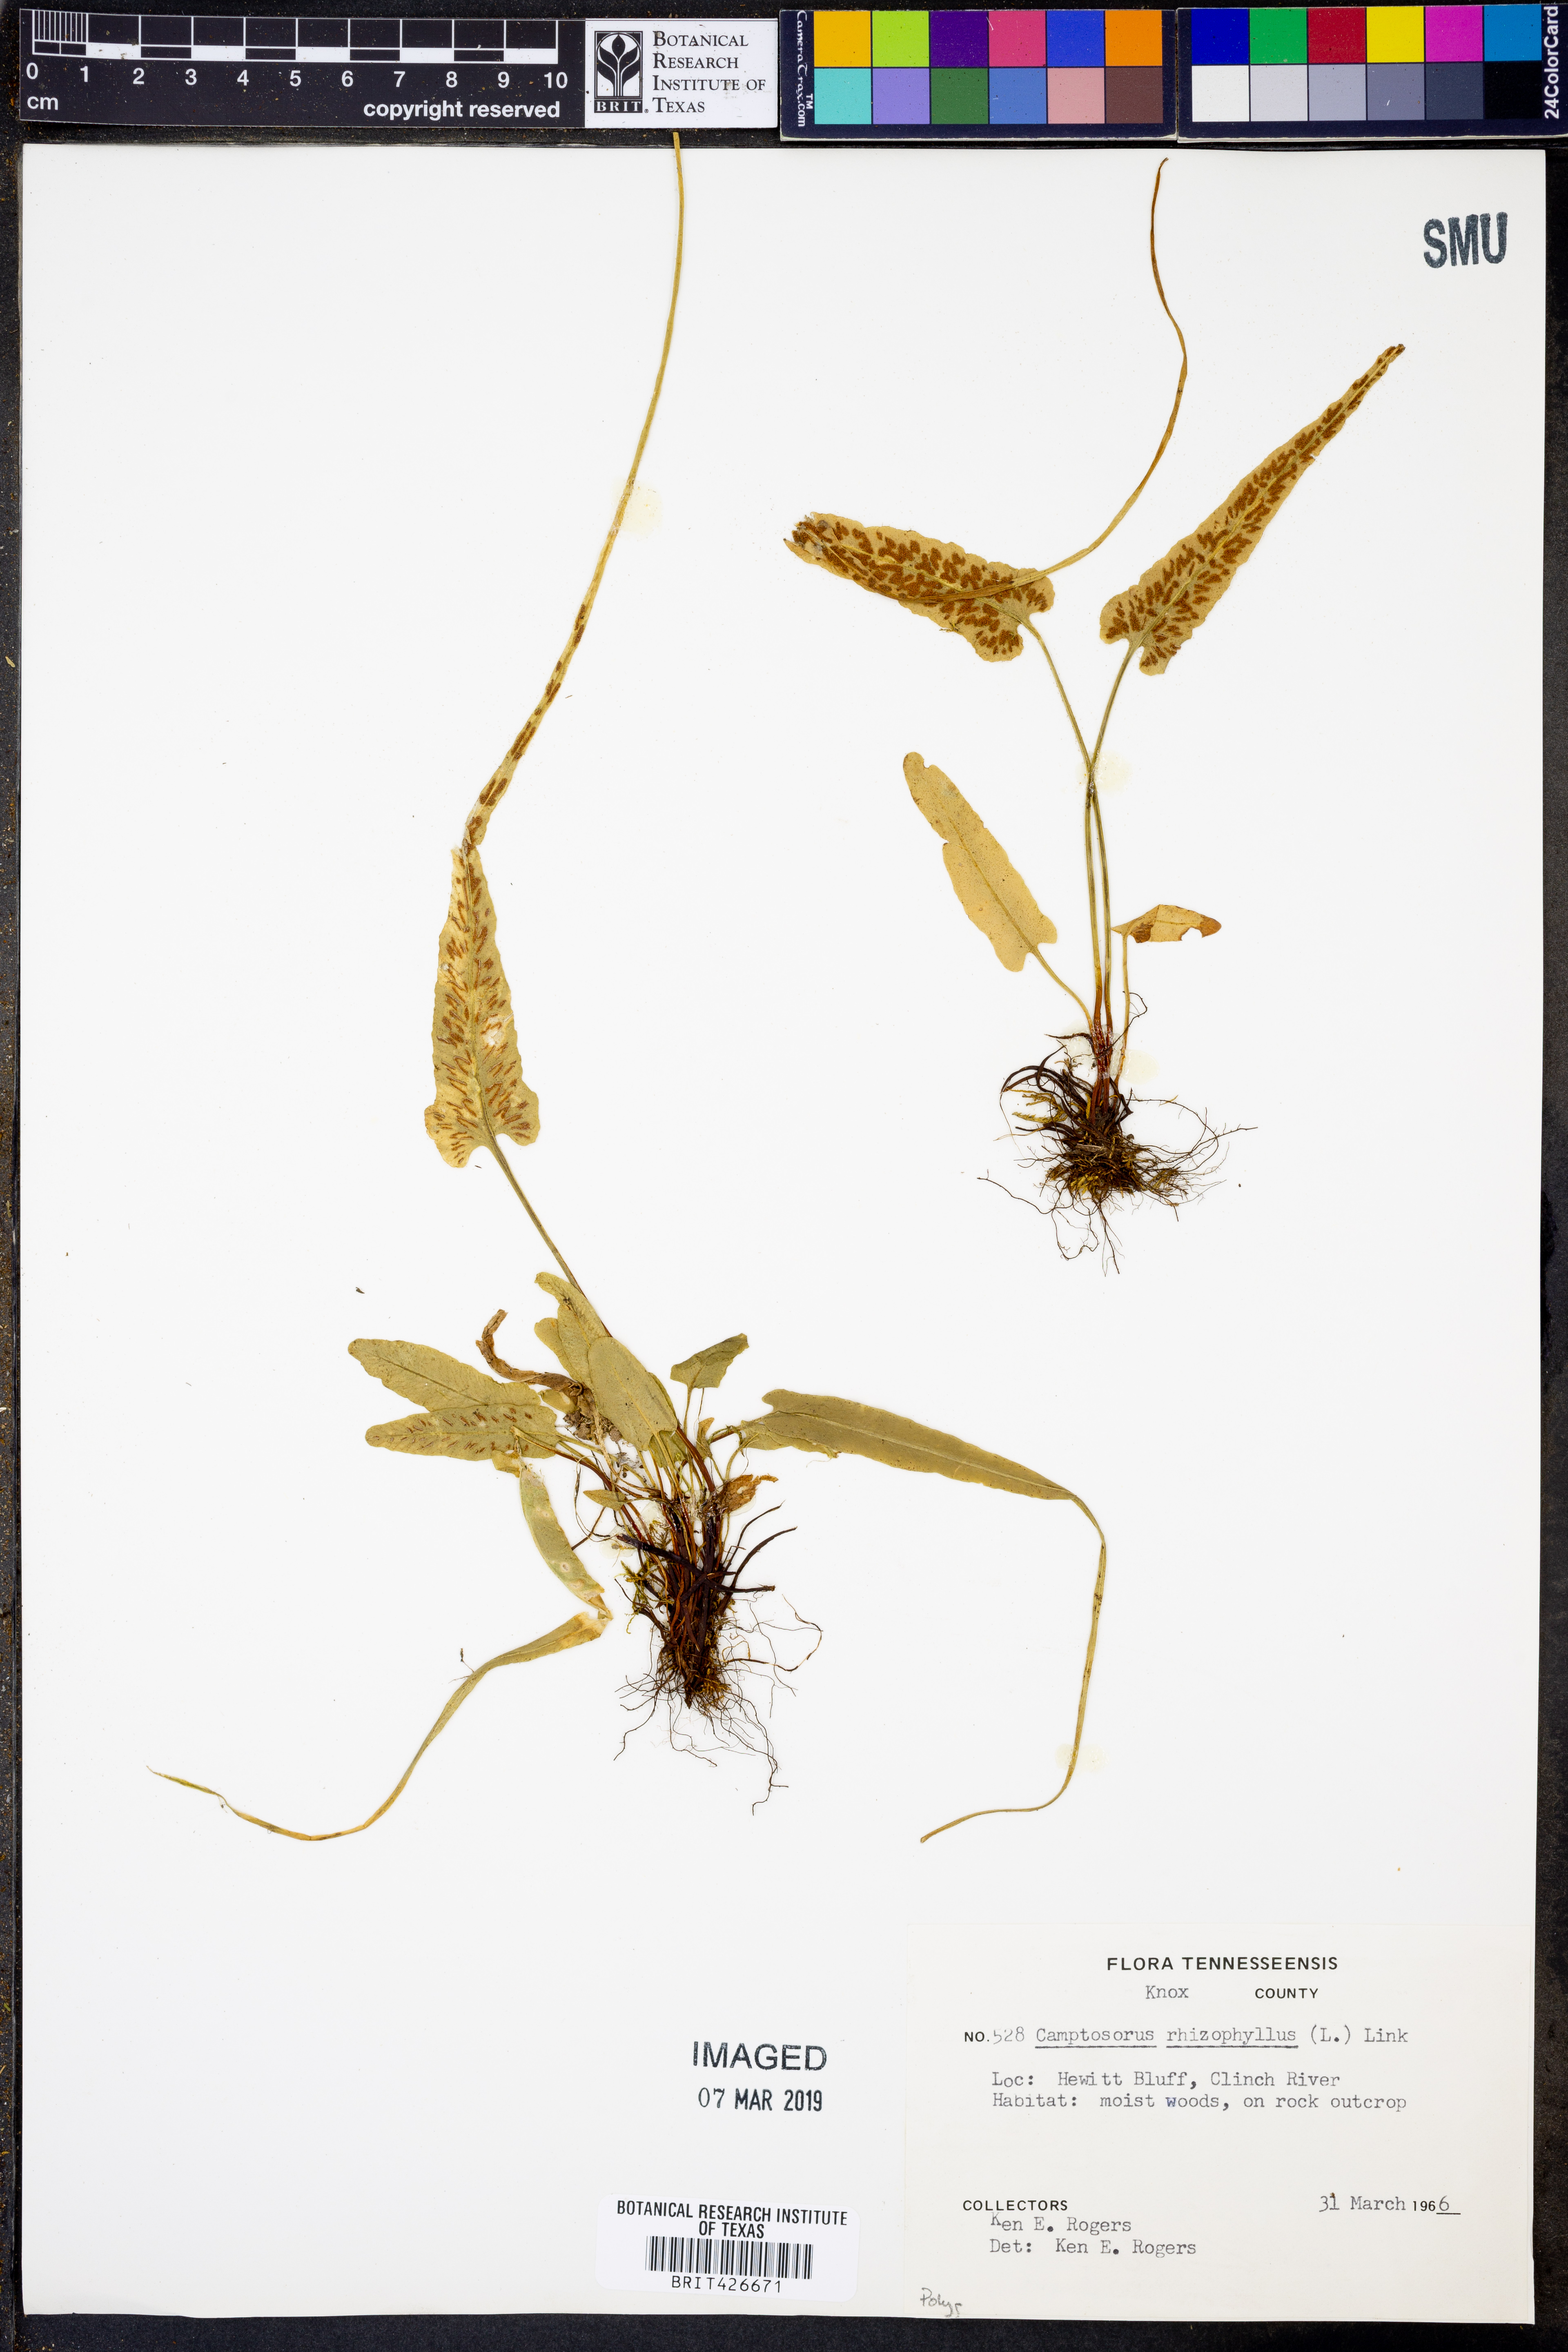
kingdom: Plantae
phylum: Tracheophyta
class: Polypodiopsida
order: Polypodiales
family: Aspleniaceae
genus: Asplenium
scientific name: Asplenium rhizophyllum
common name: Walking fern
